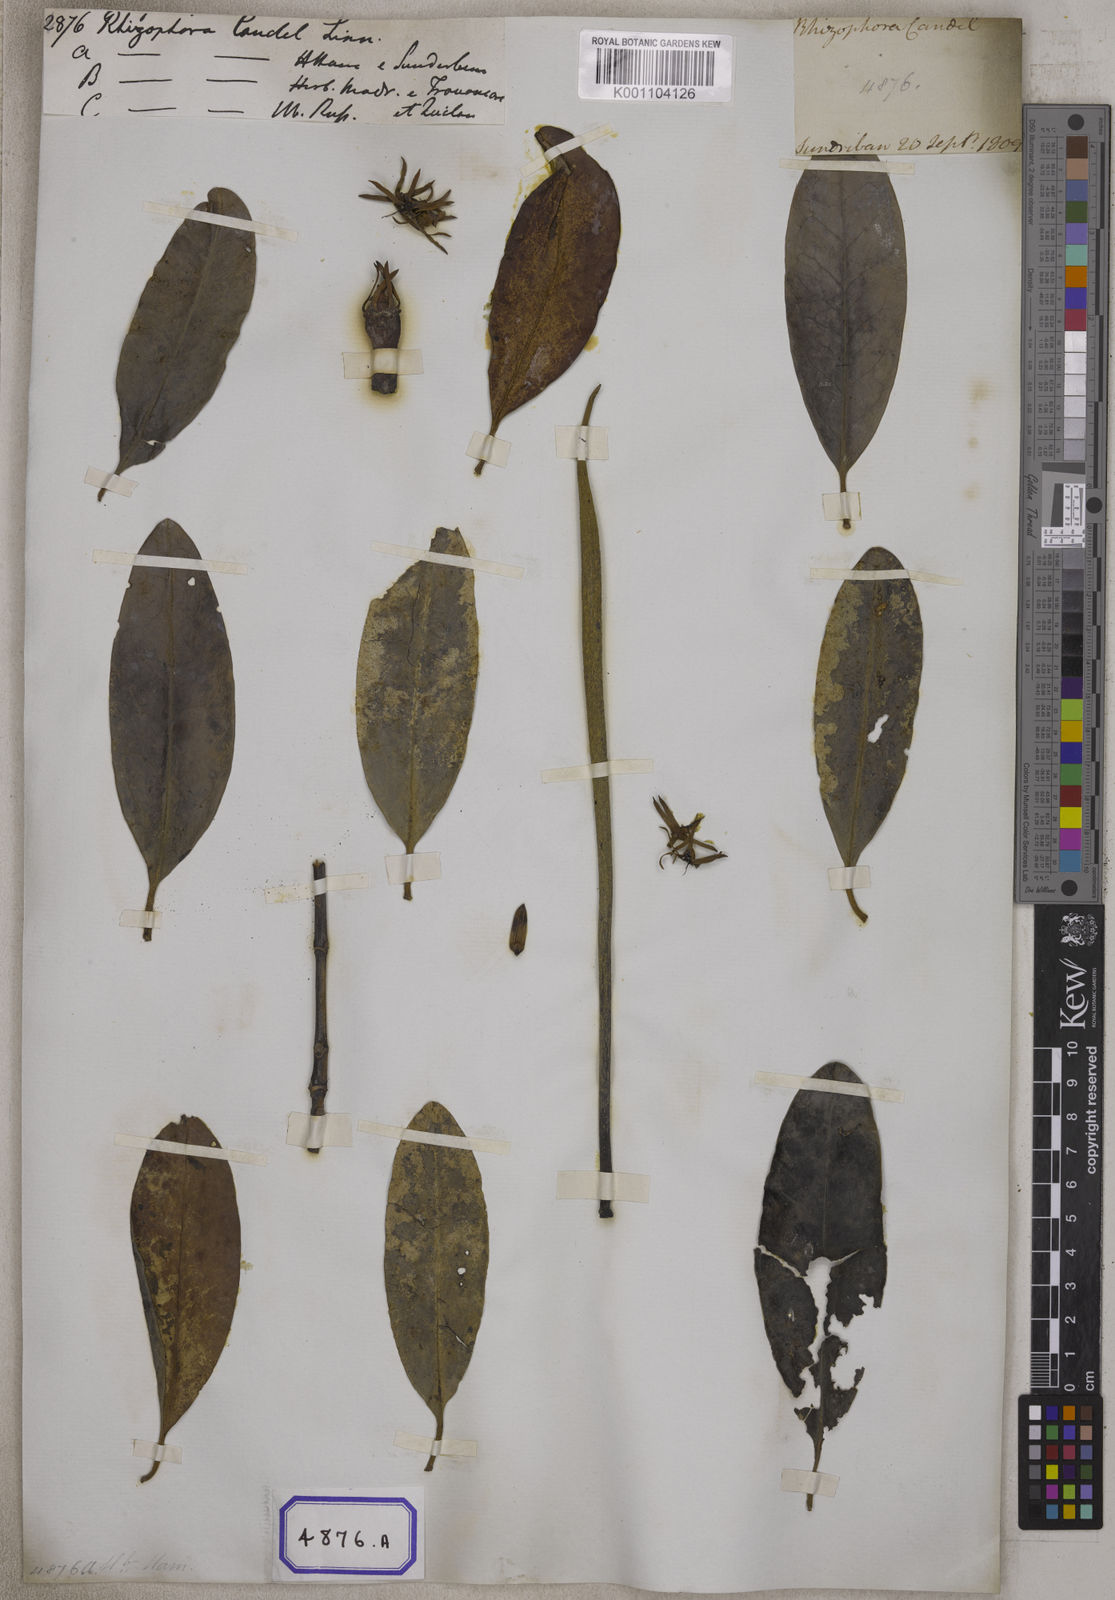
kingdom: Plantae
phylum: Tracheophyta
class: Magnoliopsida
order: Malpighiales
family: Rhizophoraceae
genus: Kandelia
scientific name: Kandelia candel
